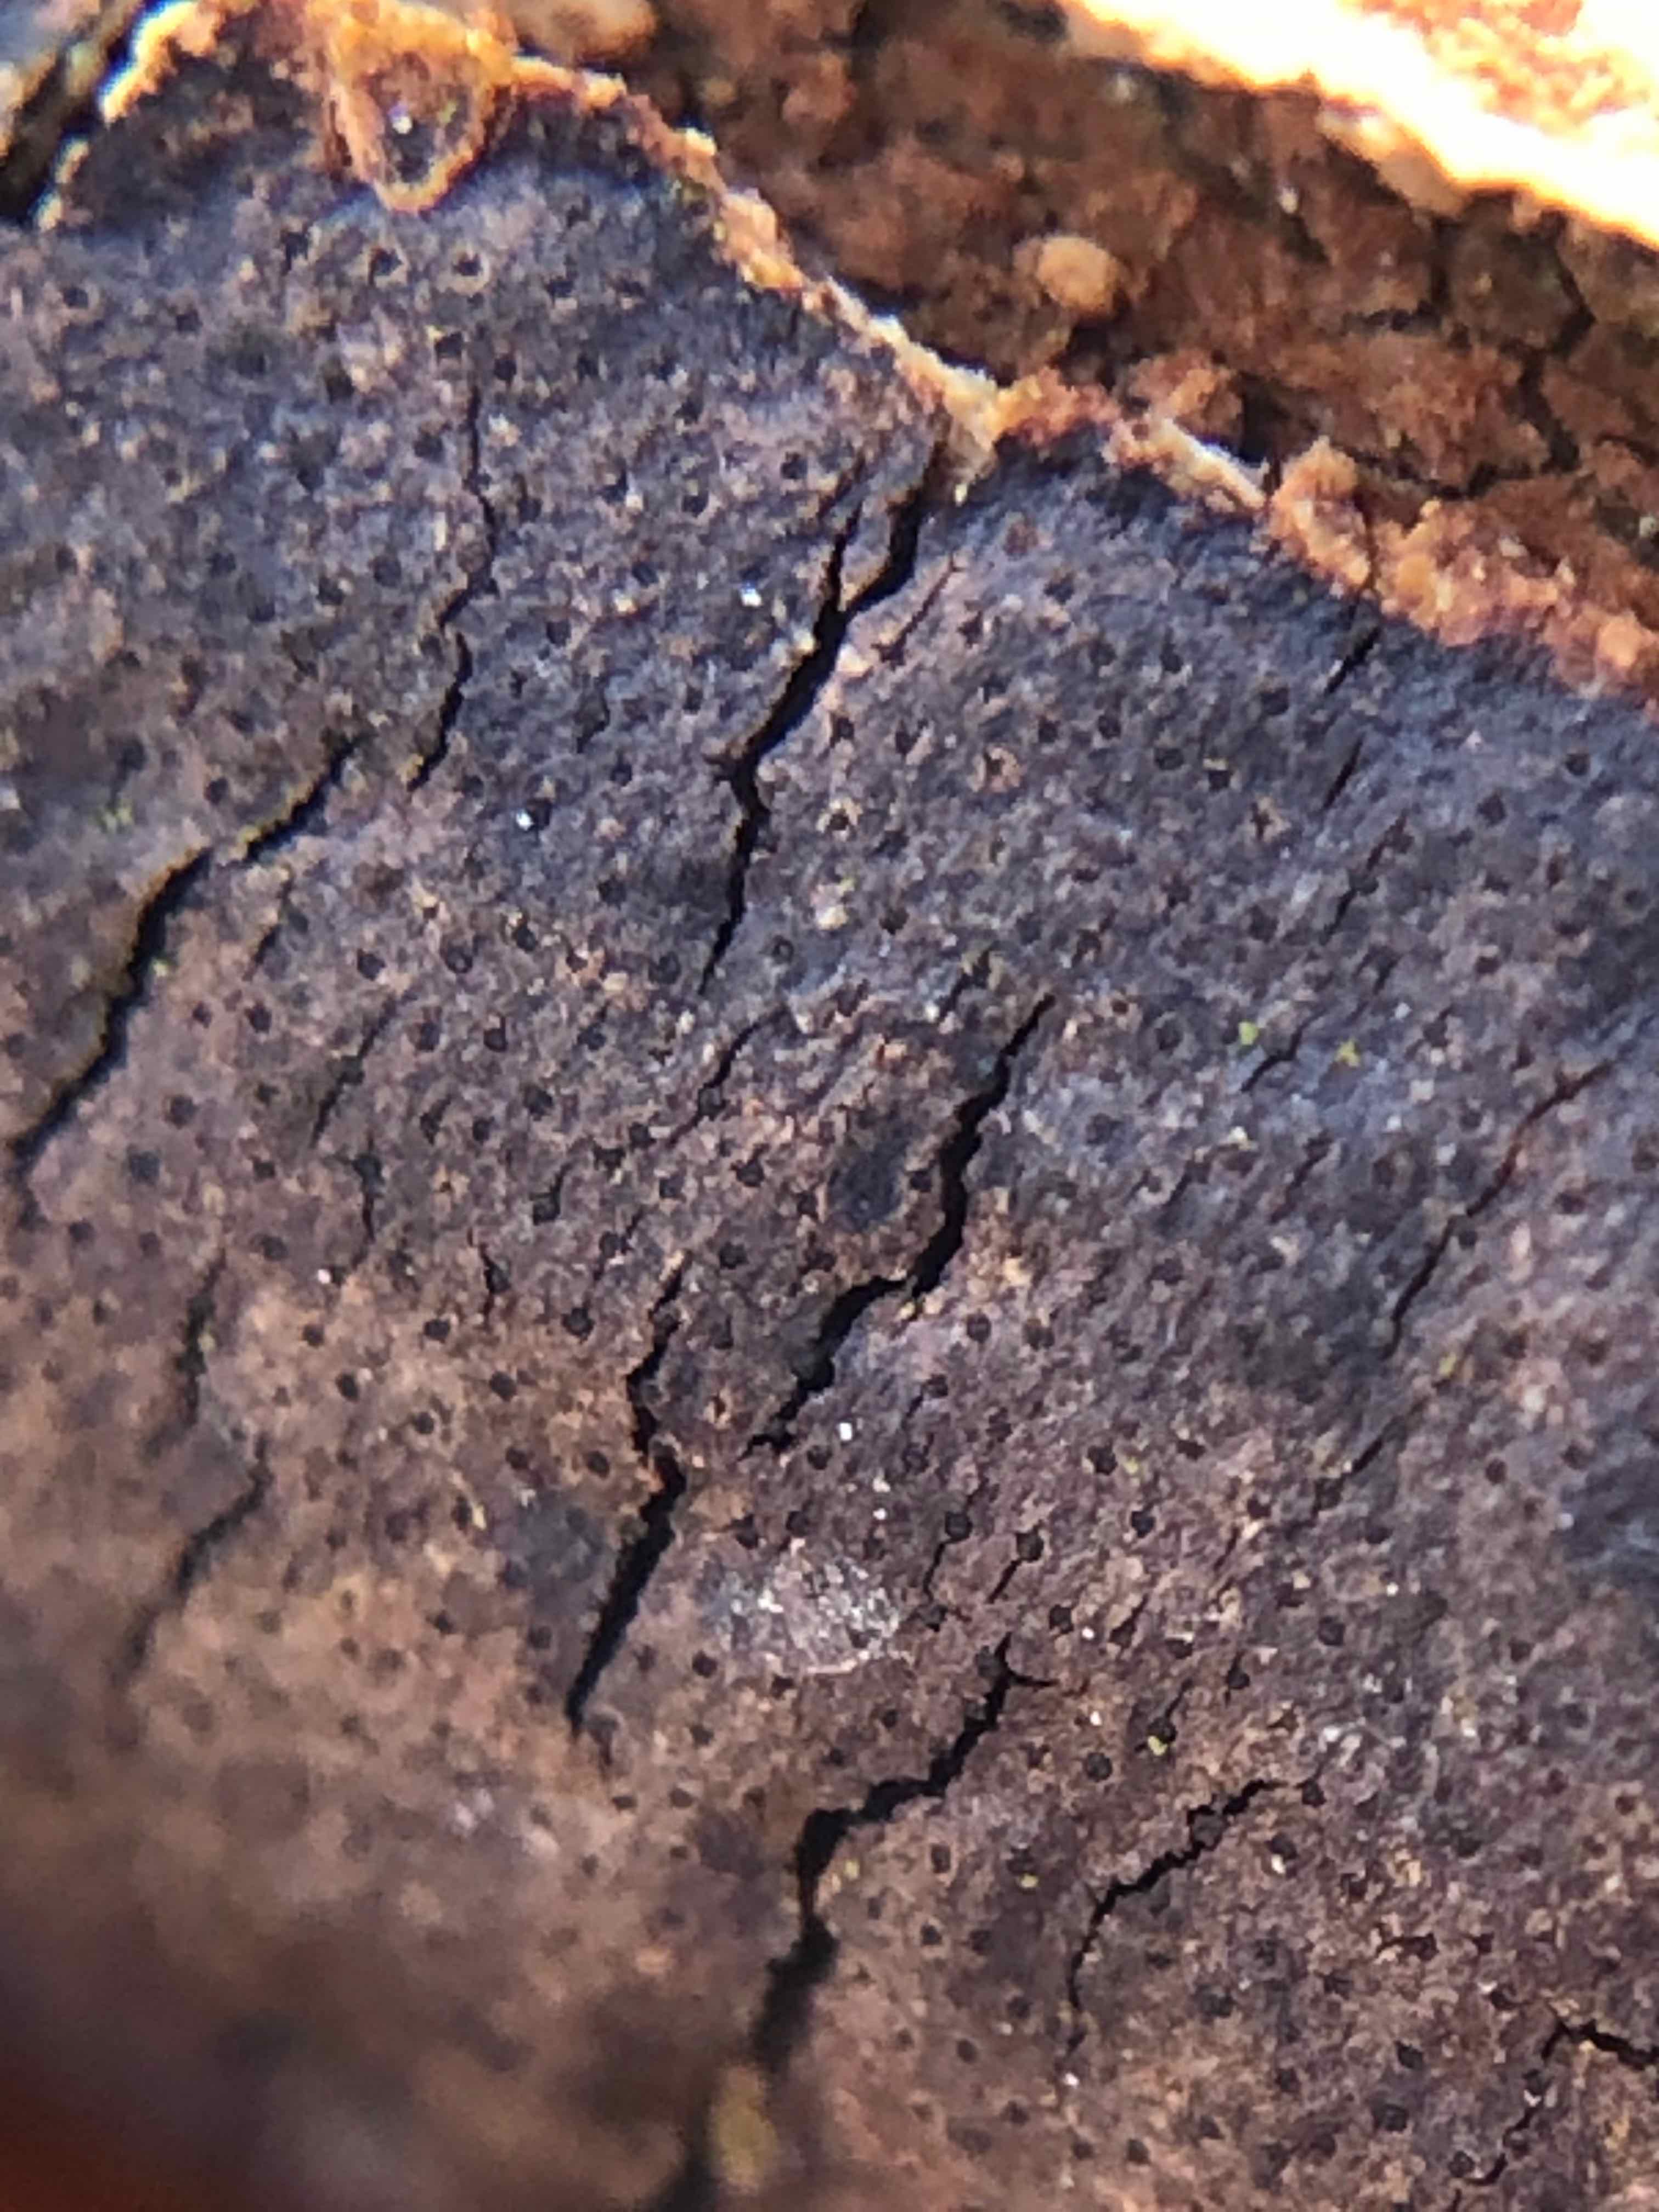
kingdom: Fungi
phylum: Ascomycota
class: Sordariomycetes
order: Xylariales
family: Diatrypaceae
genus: Diatrype
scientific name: Diatrype decorticata
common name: barksprænger-kulskorpe
